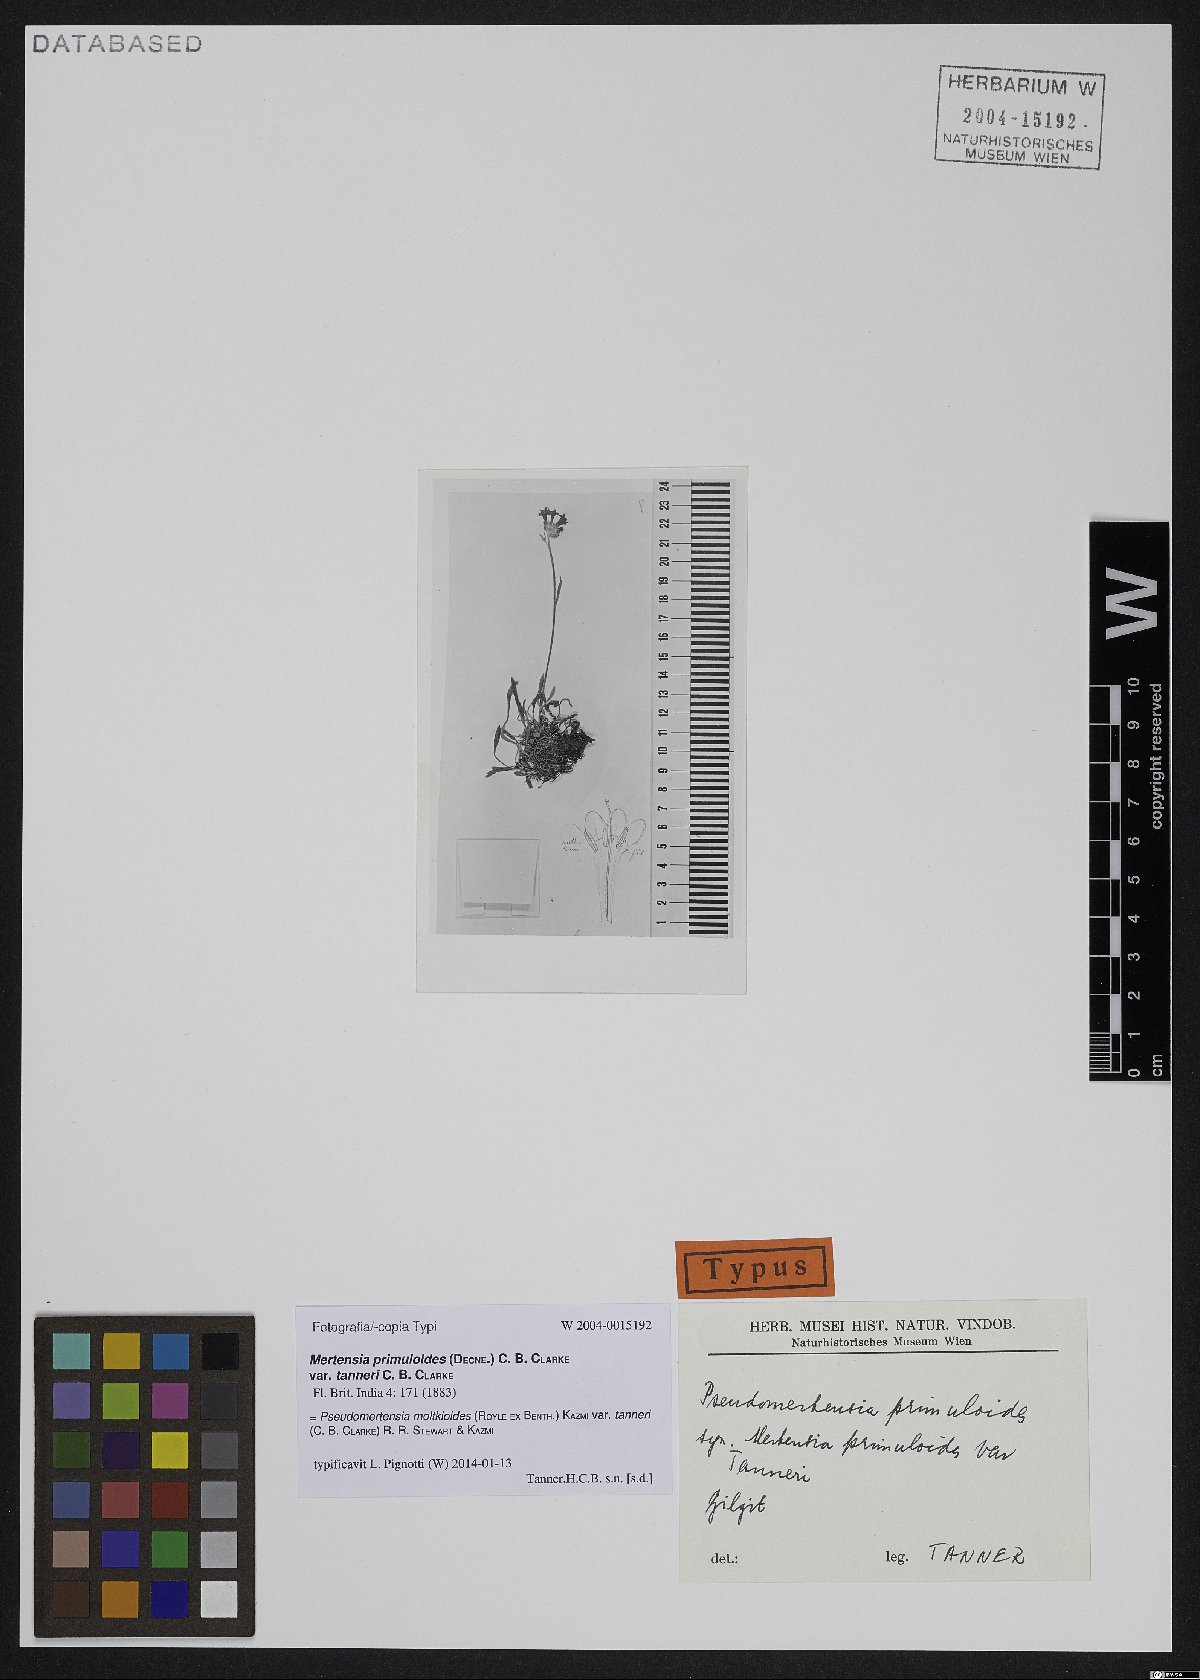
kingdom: Plantae
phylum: Tracheophyta
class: Magnoliopsida
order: Boraginales
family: Boraginaceae
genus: Decalepidanthus
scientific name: Decalepidanthus echioides
